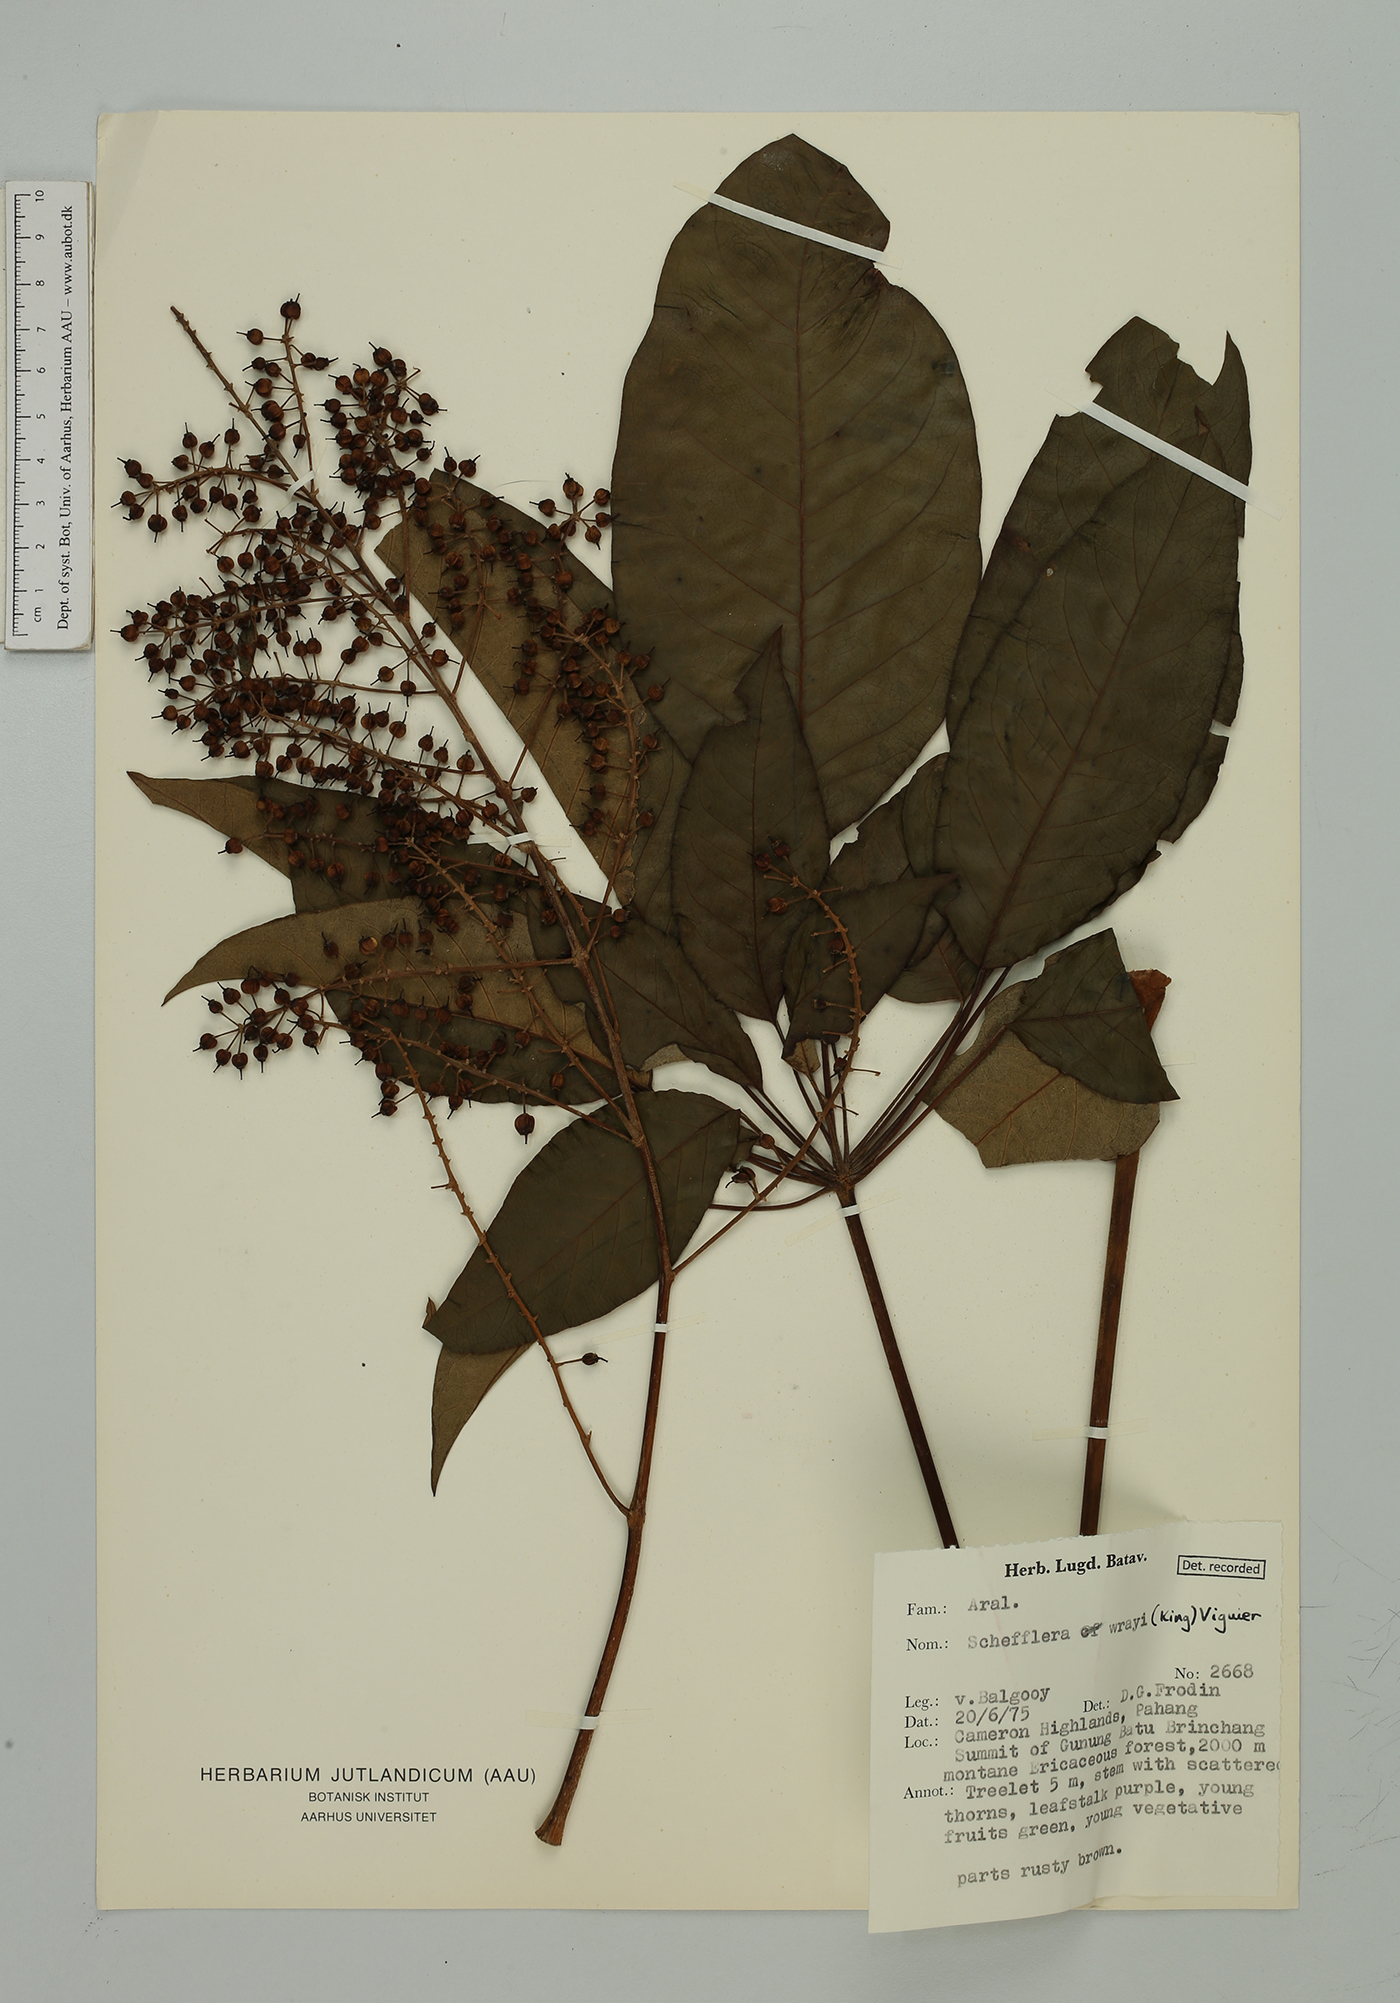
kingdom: Plantae
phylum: Tracheophyta
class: Magnoliopsida
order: Apiales
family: Araliaceae
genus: Heptapleurum
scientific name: Heptapleurum wrayi
